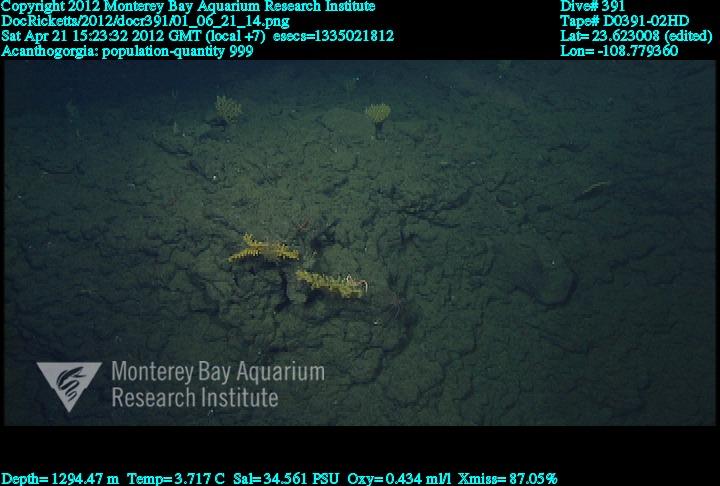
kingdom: Animalia
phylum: Cnidaria
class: Anthozoa
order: Malacalcyonacea
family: Paramuriceidae
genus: Acanthogorgia
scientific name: Acanthogorgia
